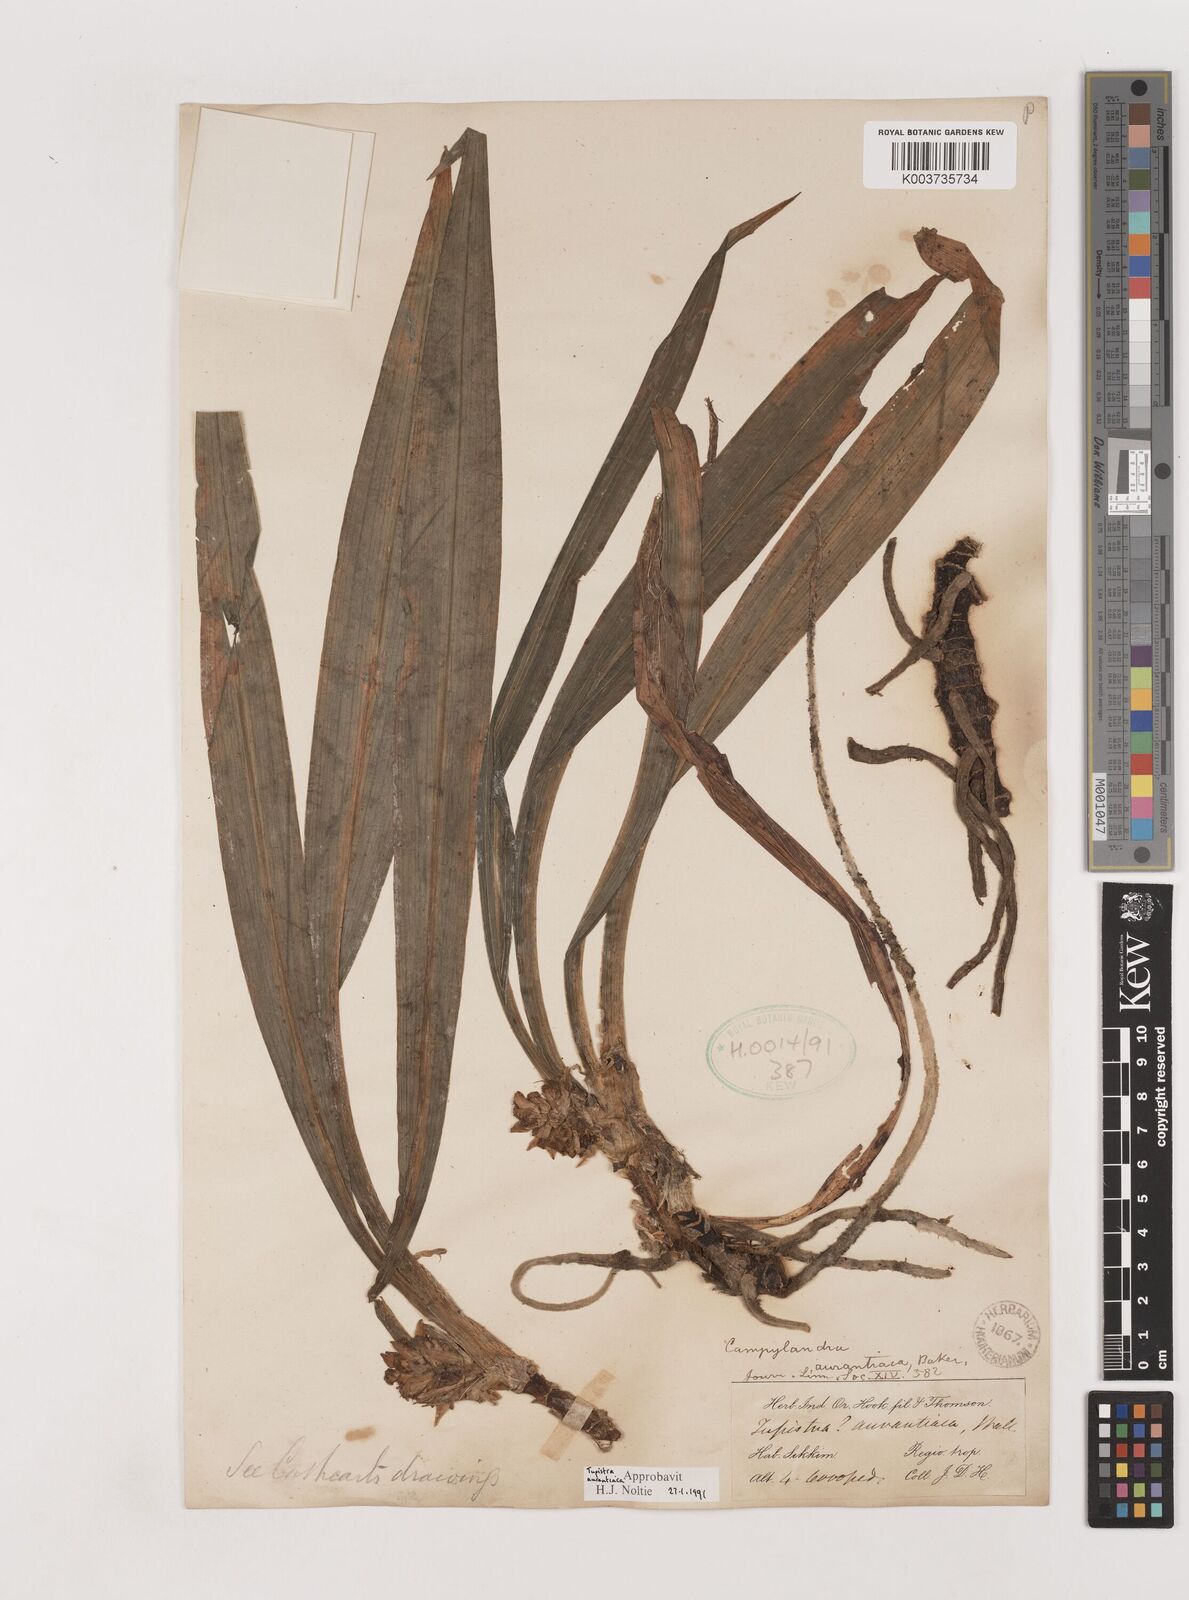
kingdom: Plantae
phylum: Tracheophyta
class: Liliopsida
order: Asparagales
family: Asparagaceae
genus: Rohdea
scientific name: Rohdea nepalensis
